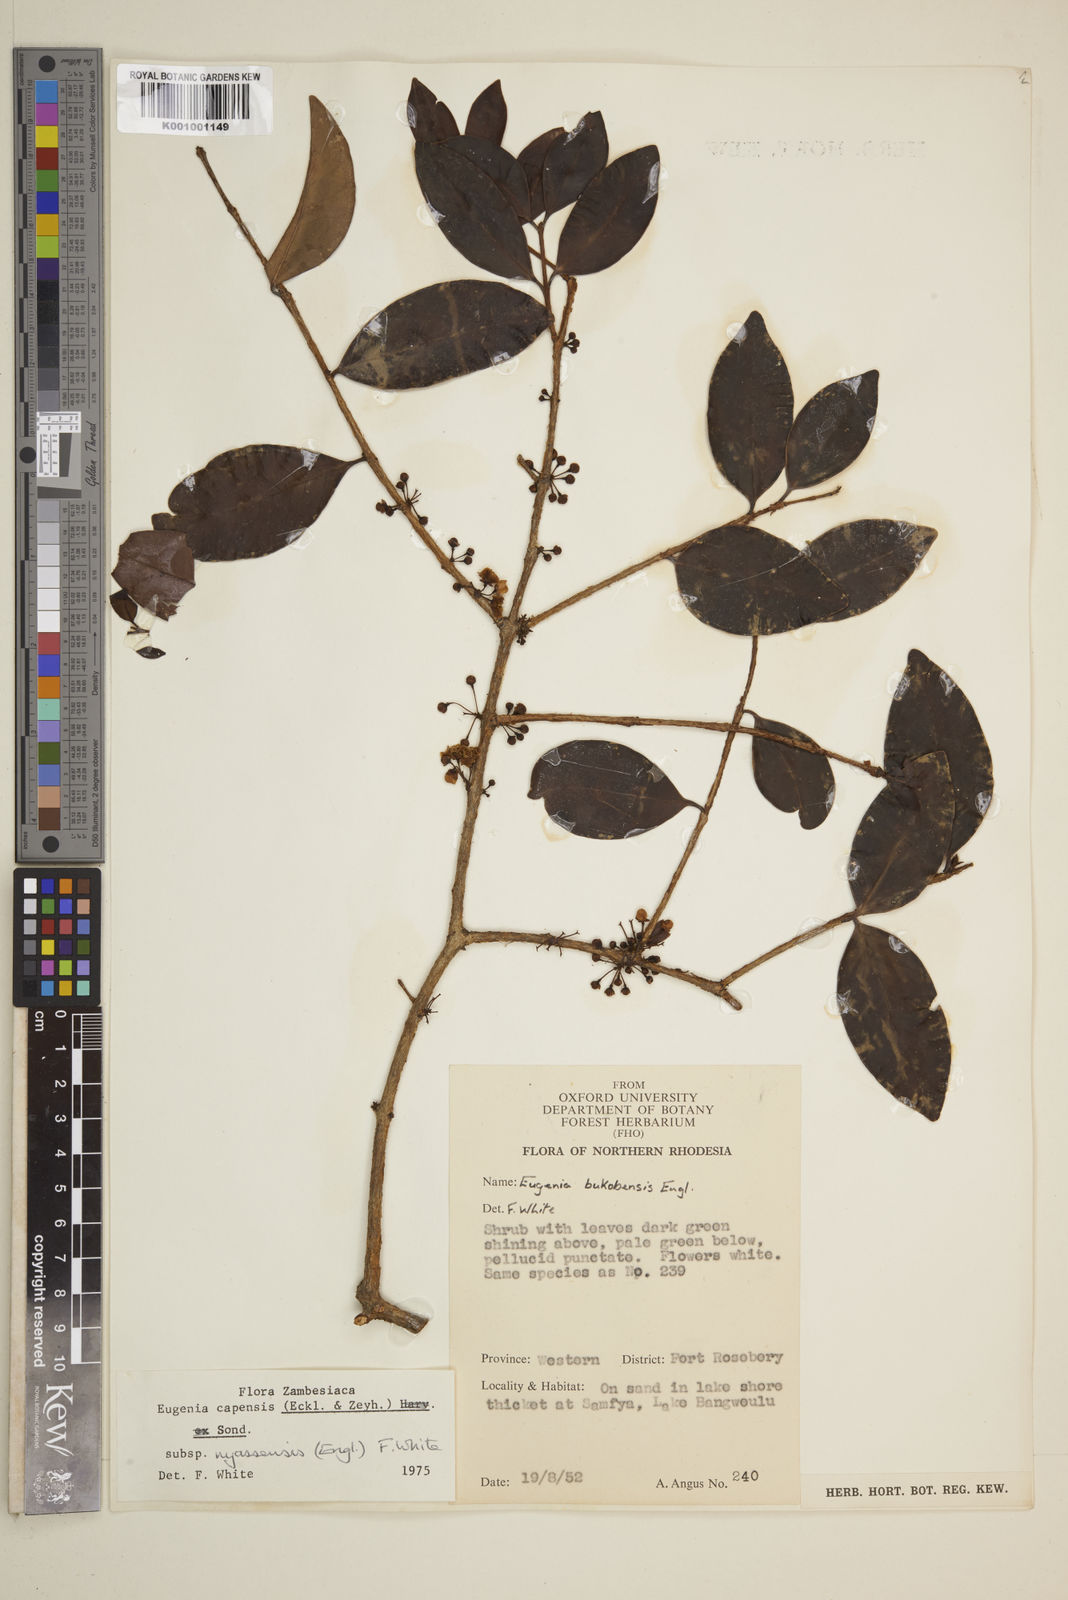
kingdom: Plantae
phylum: Tracheophyta
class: Magnoliopsida
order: Myrtales
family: Myrtaceae
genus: Eugenia
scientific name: Eugenia capensis
